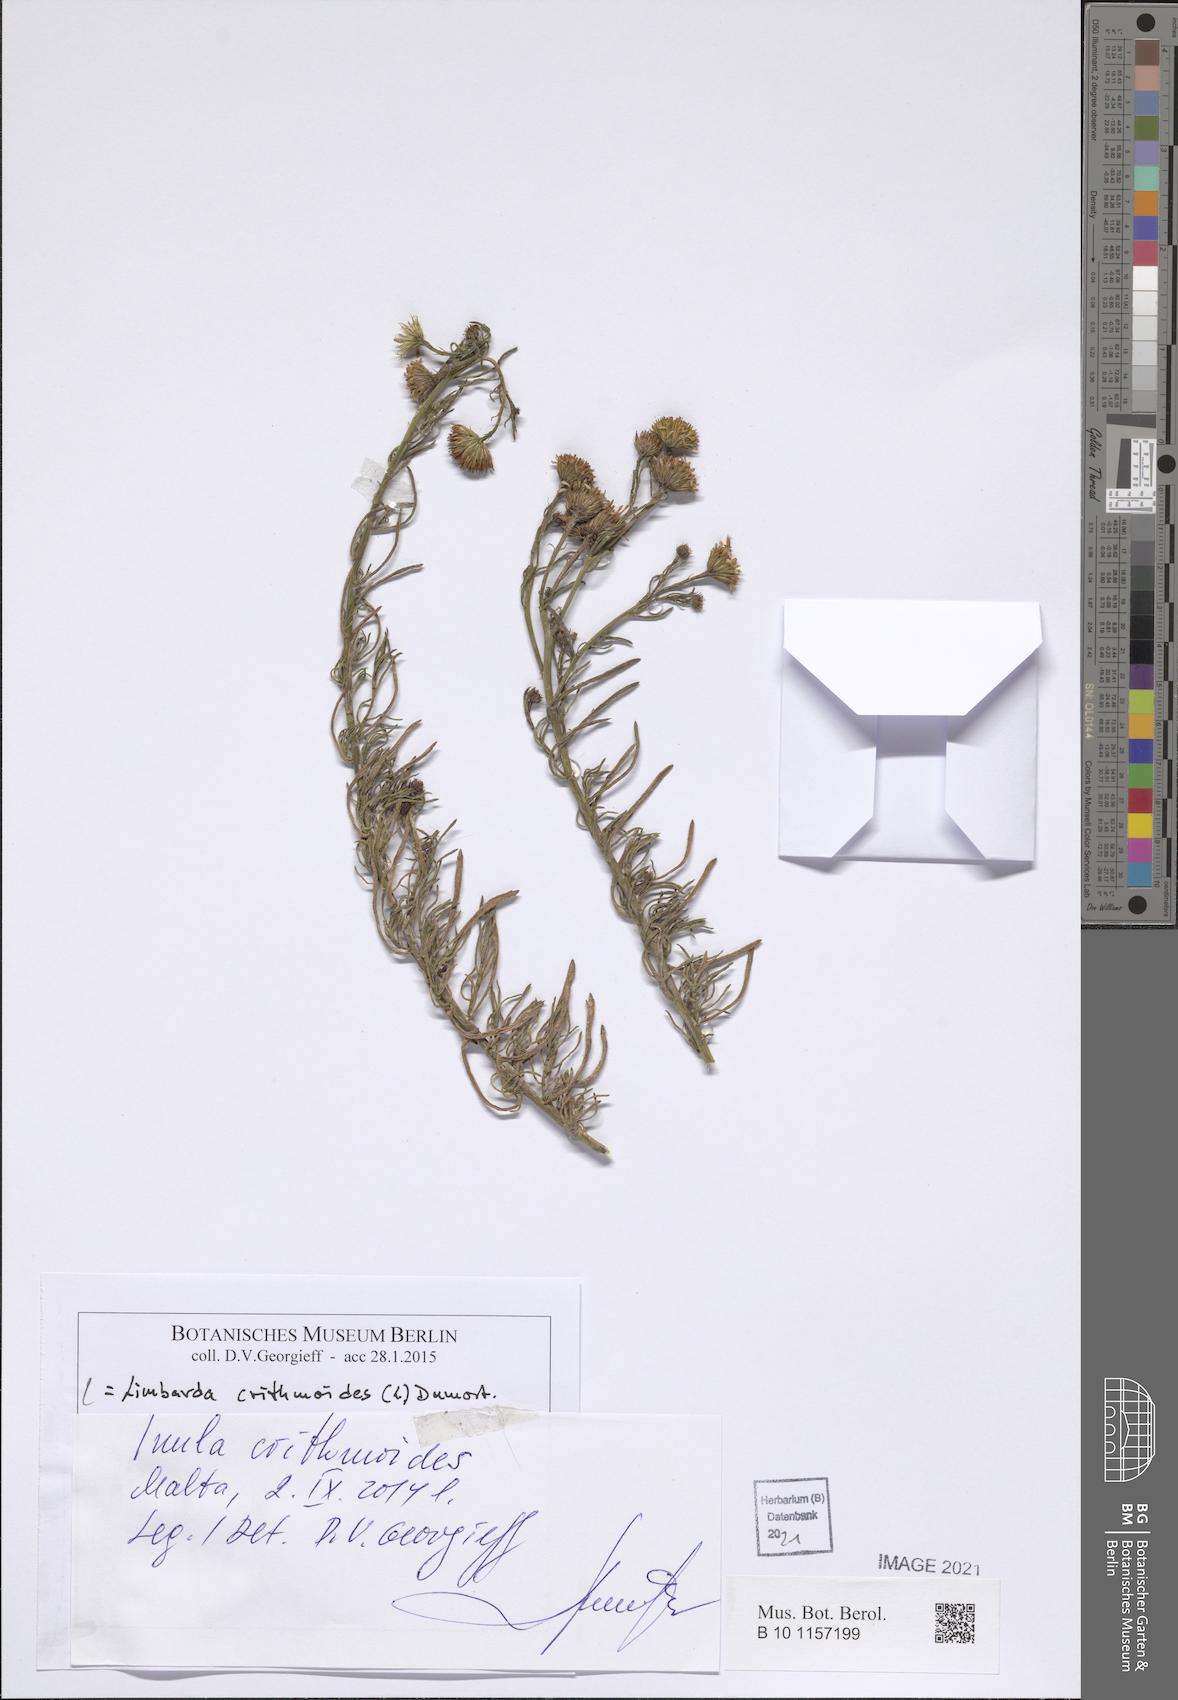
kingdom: Plantae
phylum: Tracheophyta
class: Magnoliopsida
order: Asterales
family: Asteraceae
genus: Limbarda
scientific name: Limbarda crithmoides
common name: Golden samphire
